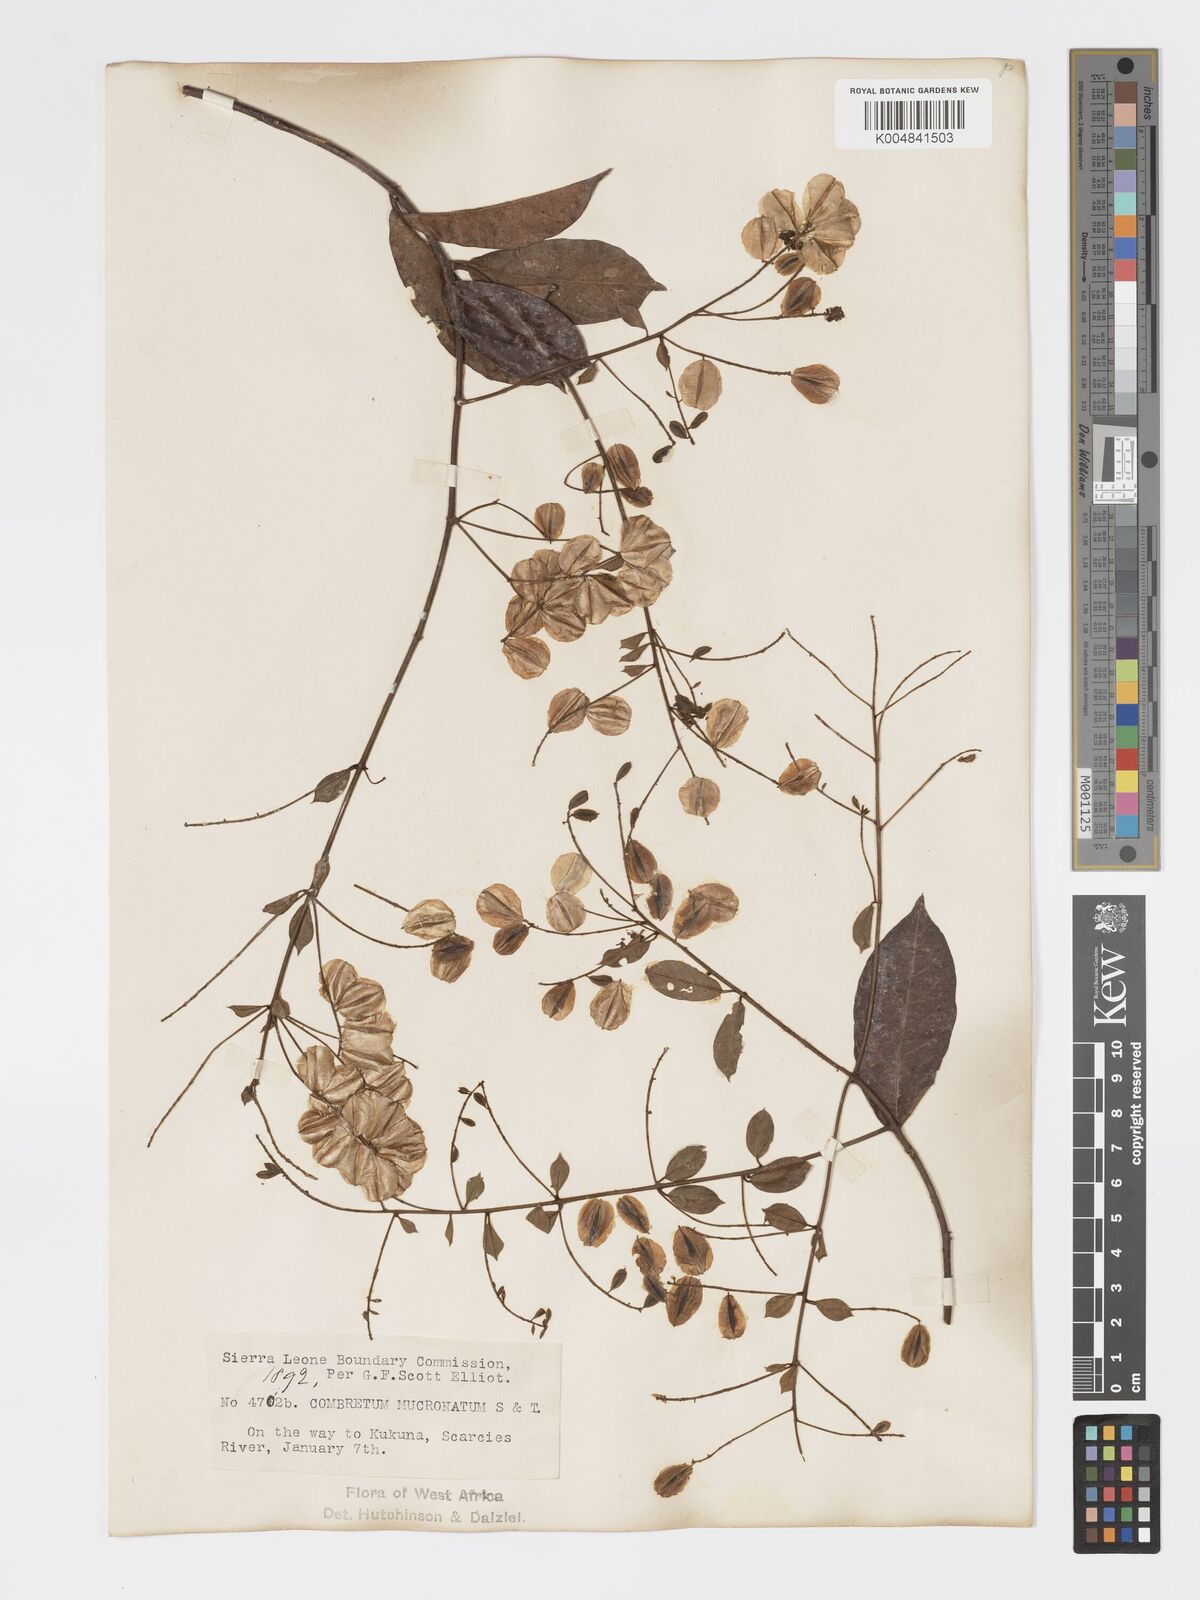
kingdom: Plantae
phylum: Tracheophyta
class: Magnoliopsida
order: Myrtales
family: Combretaceae
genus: Combretum
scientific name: Combretum mucronatum
